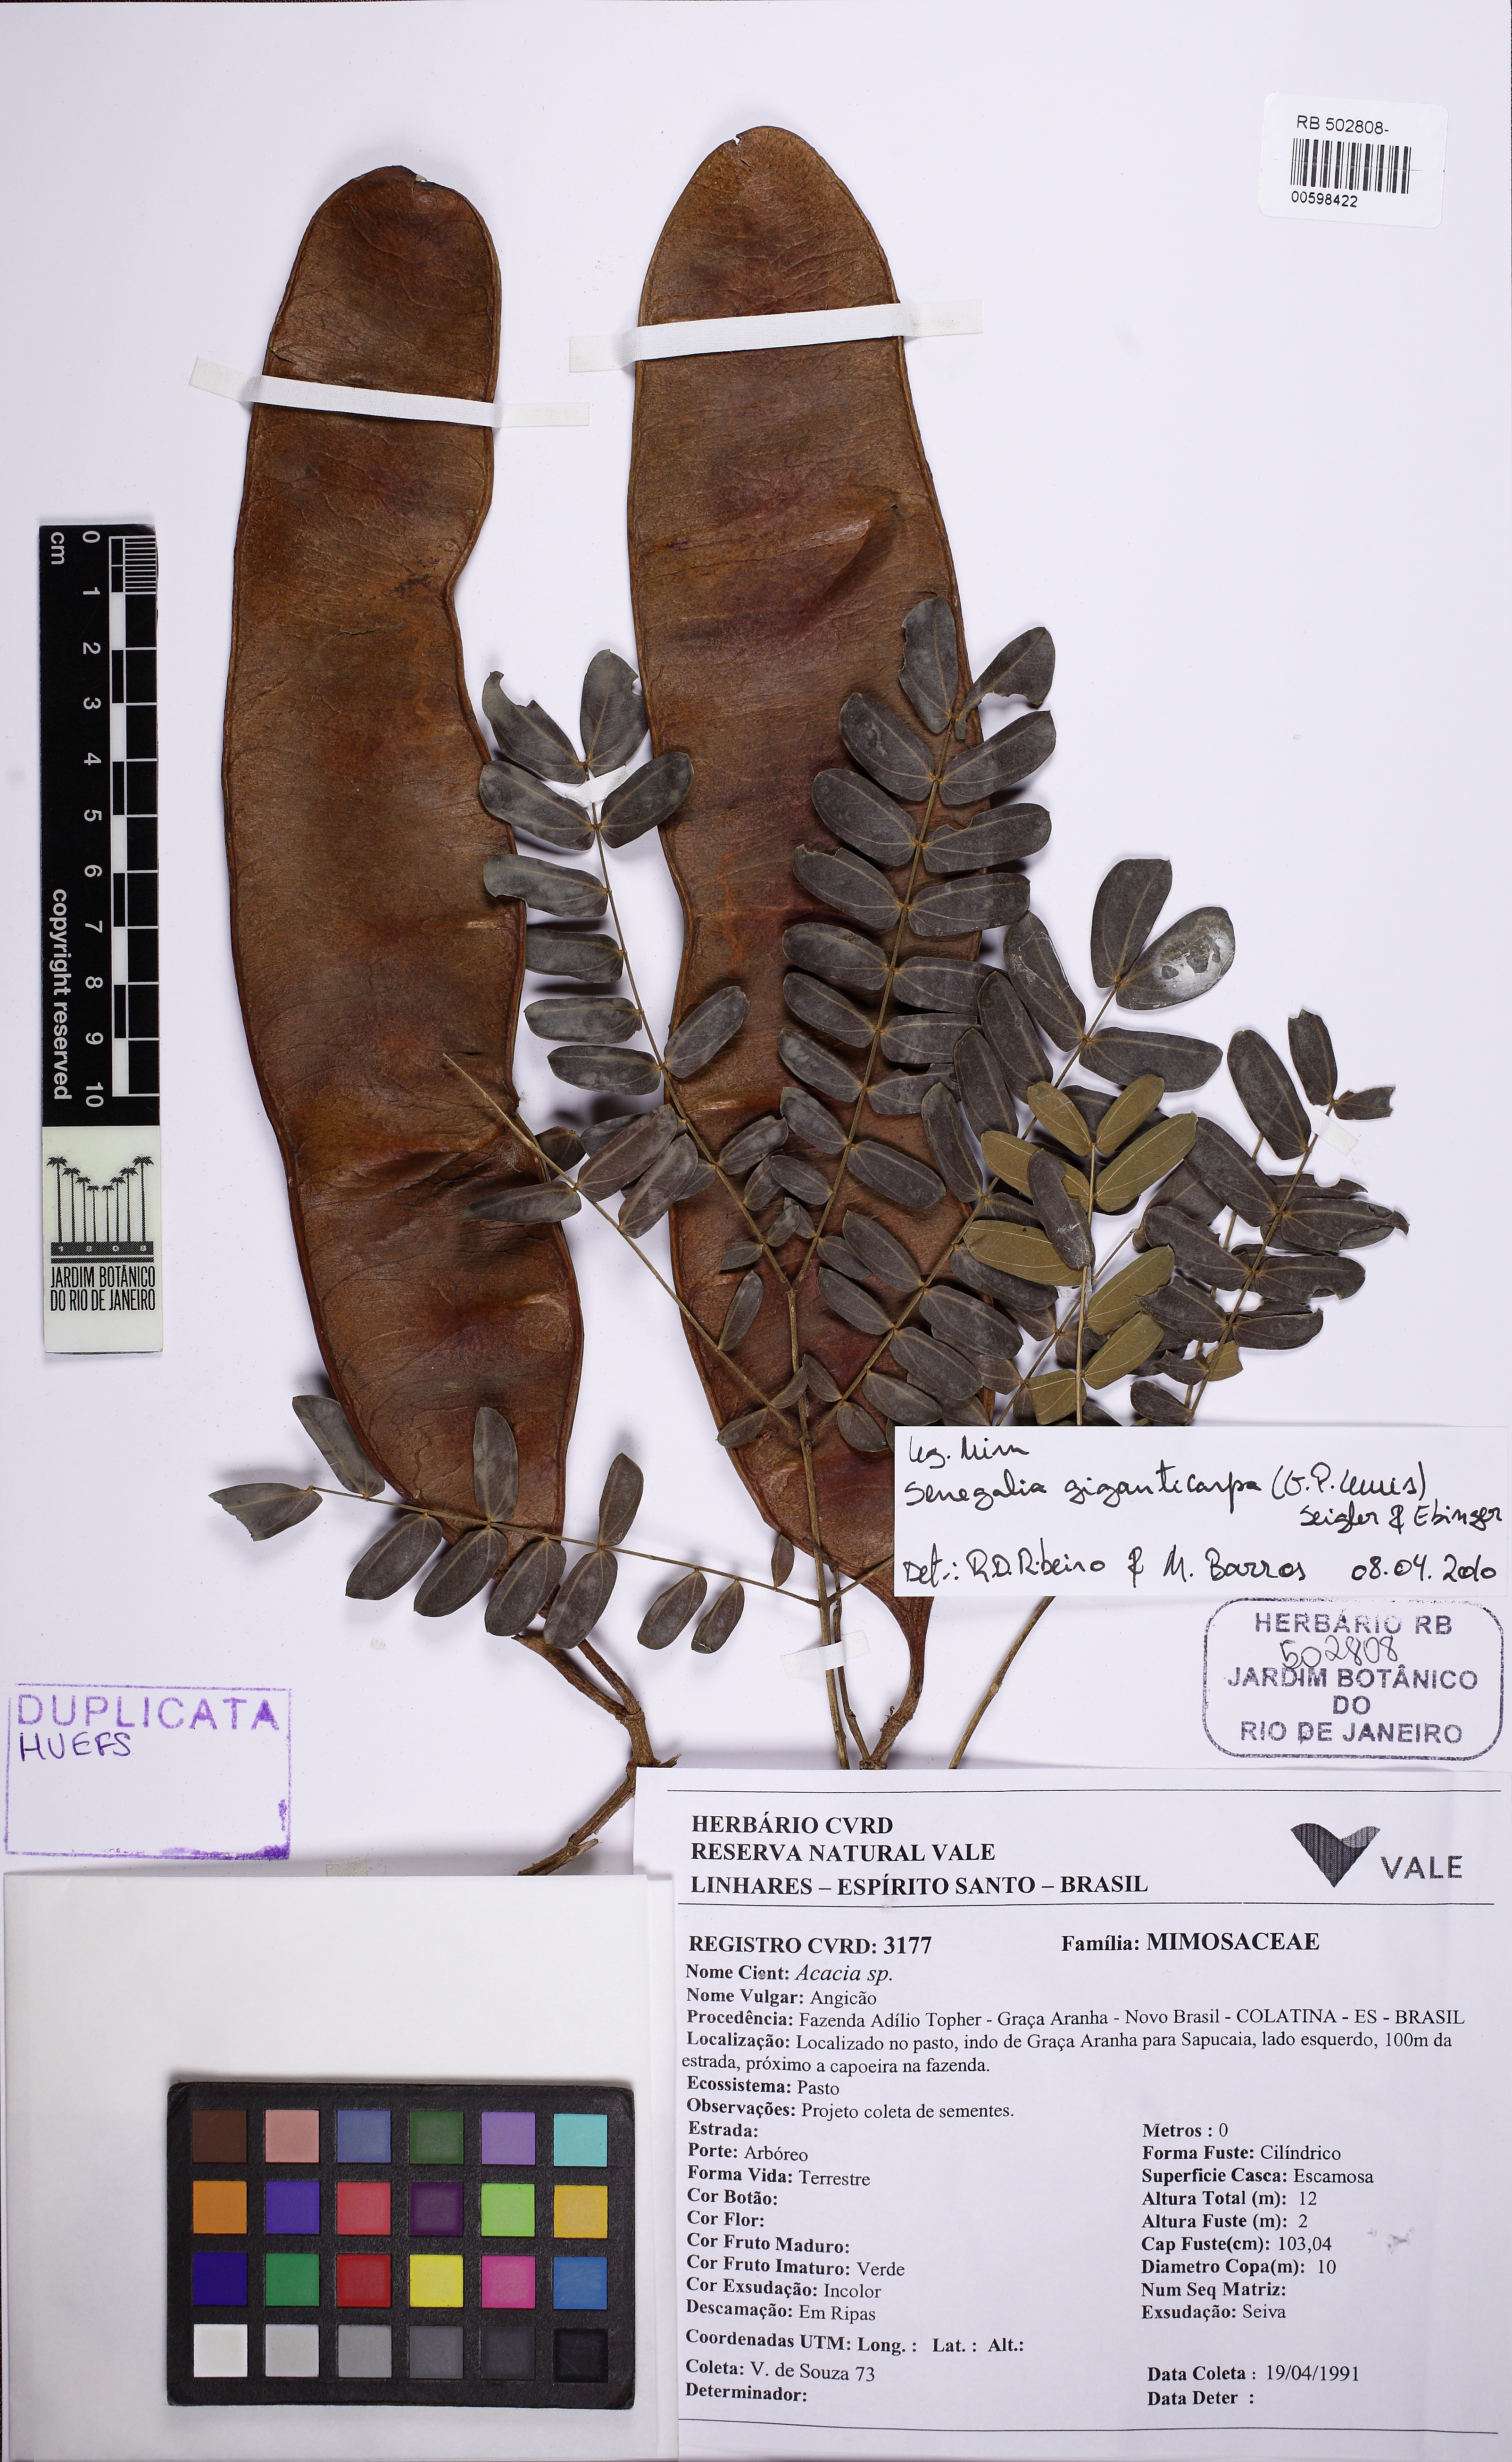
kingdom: Plantae
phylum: Tracheophyta
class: Magnoliopsida
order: Fabales
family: Fabaceae
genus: Senegalia
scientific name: Senegalia giganticarpa
